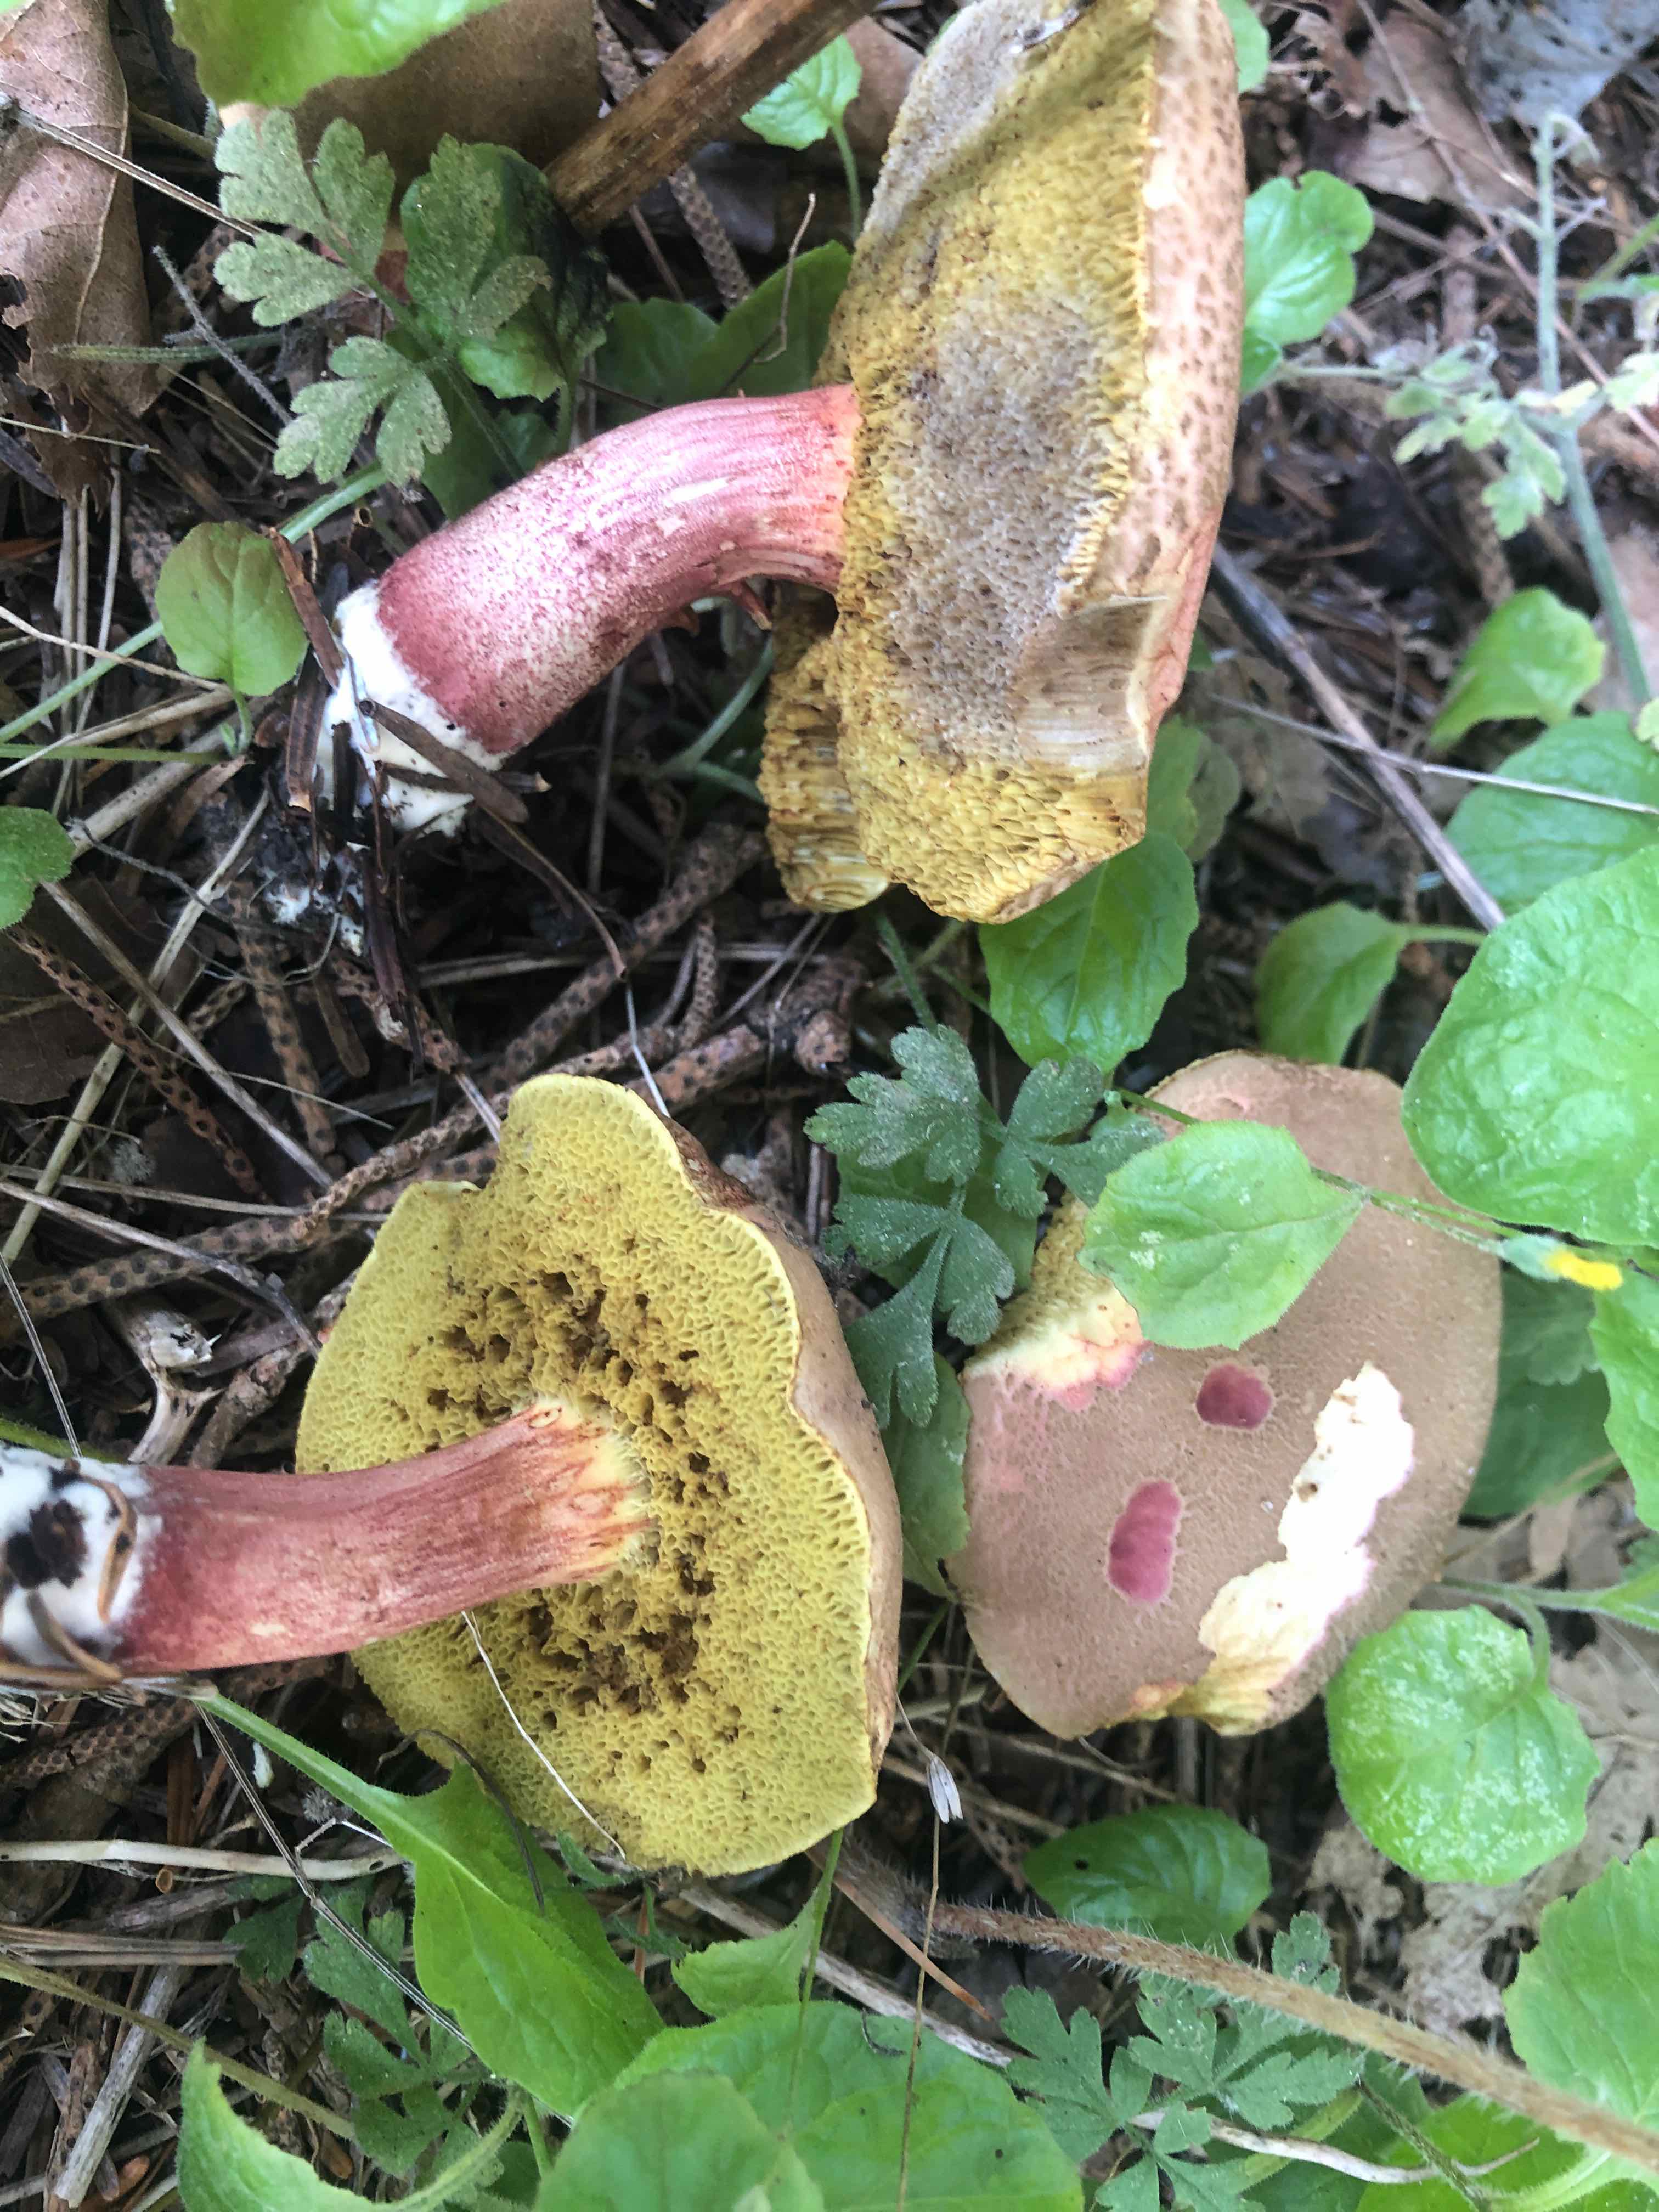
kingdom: Fungi
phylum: Basidiomycota
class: Agaricomycetes
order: Boletales
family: Boletaceae
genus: Xerocomellus
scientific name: Xerocomellus chrysenteron
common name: rødsprukken rørhat
